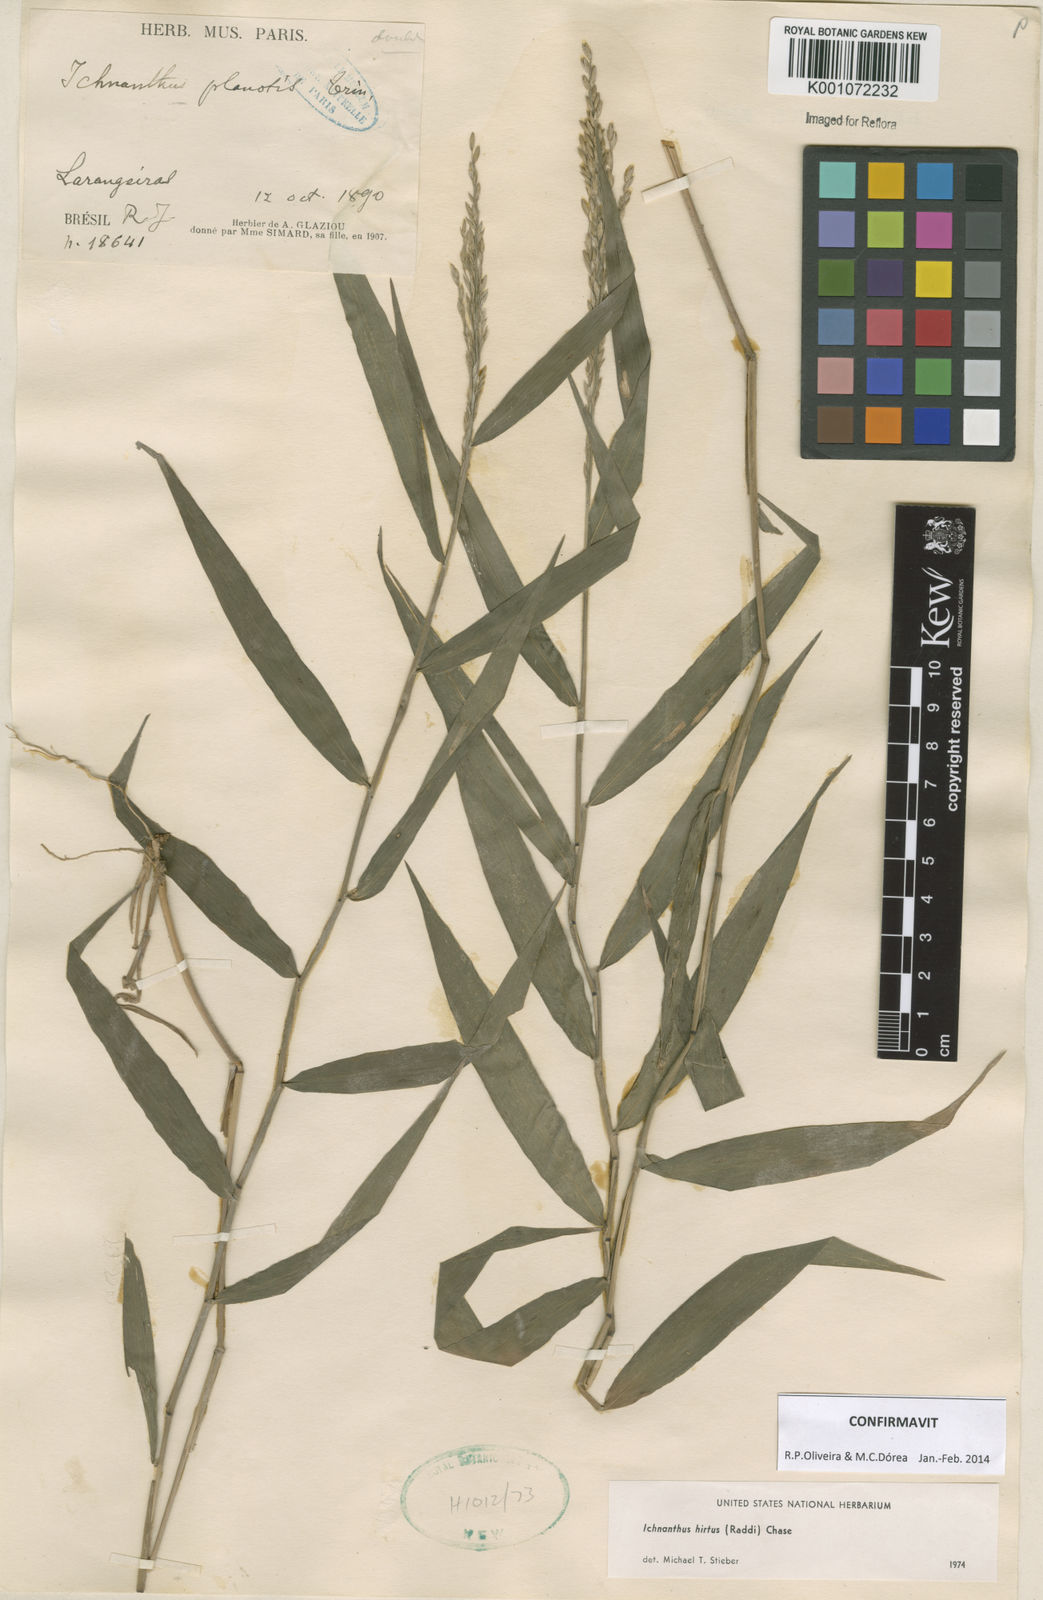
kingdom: Plantae
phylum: Tracheophyta
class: Liliopsida
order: Poales
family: Poaceae
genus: Ichnanthus
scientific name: Ichnanthus hirtus
